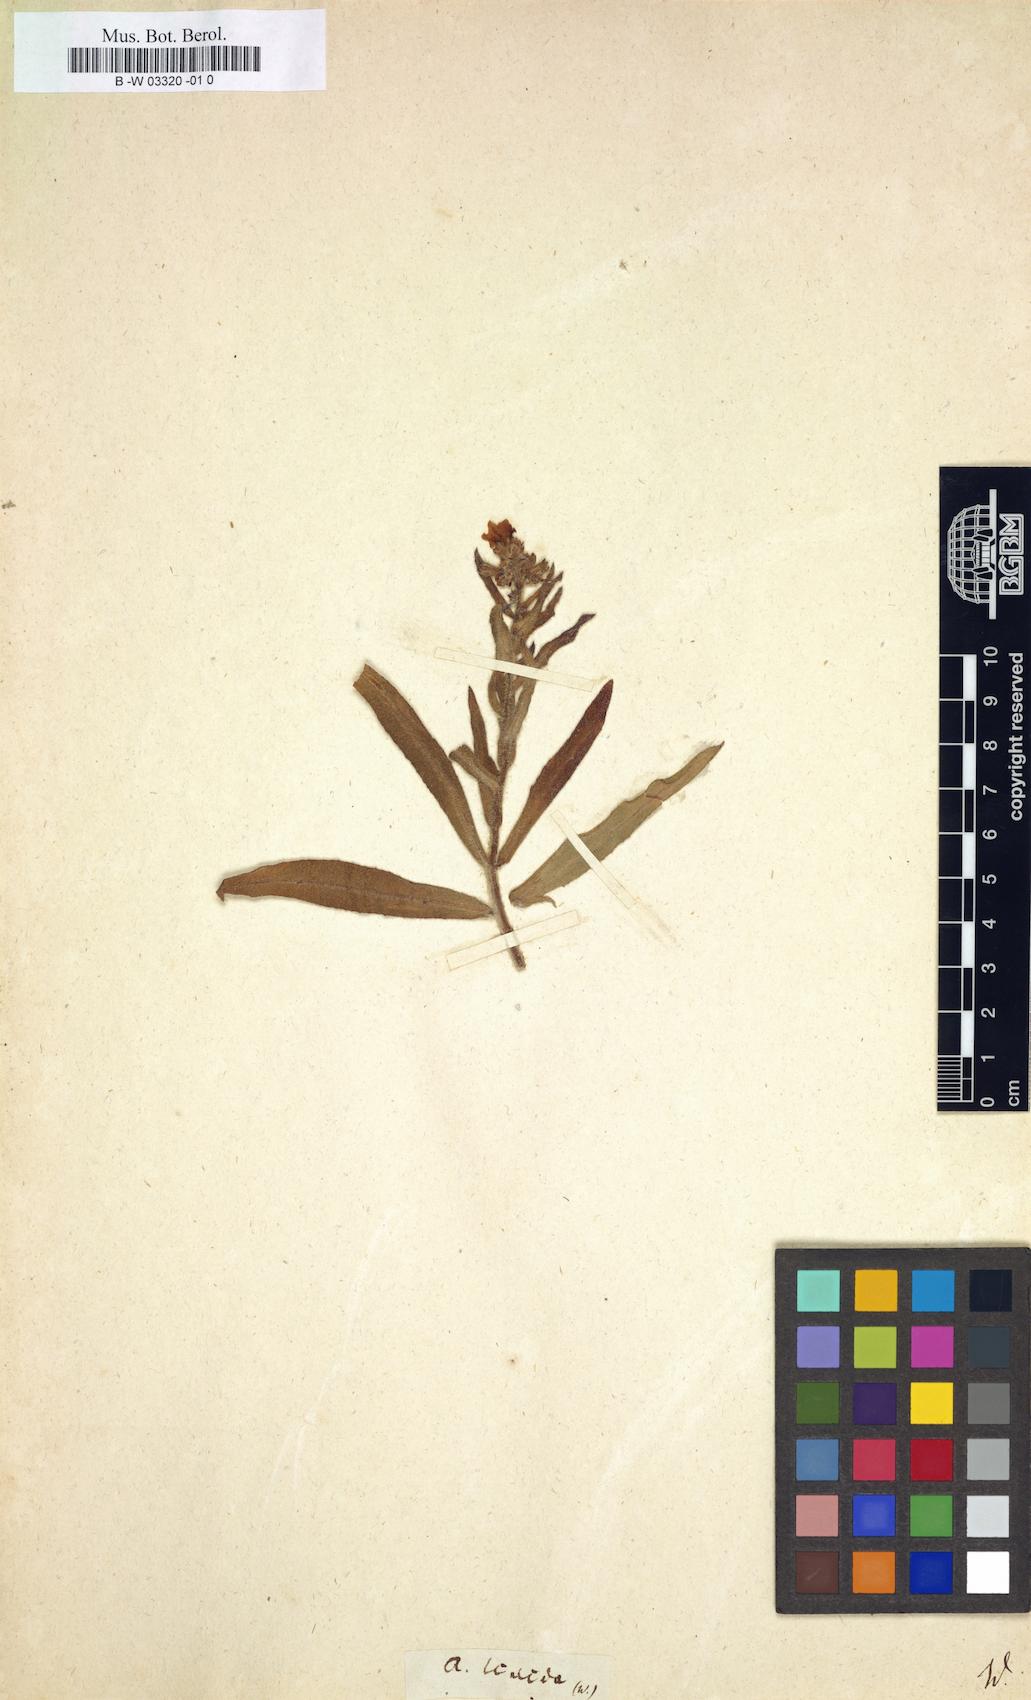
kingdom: Plantae
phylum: Tracheophyta
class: Magnoliopsida
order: Boraginales
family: Boraginaceae
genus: Anchusa
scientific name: Anchusa
